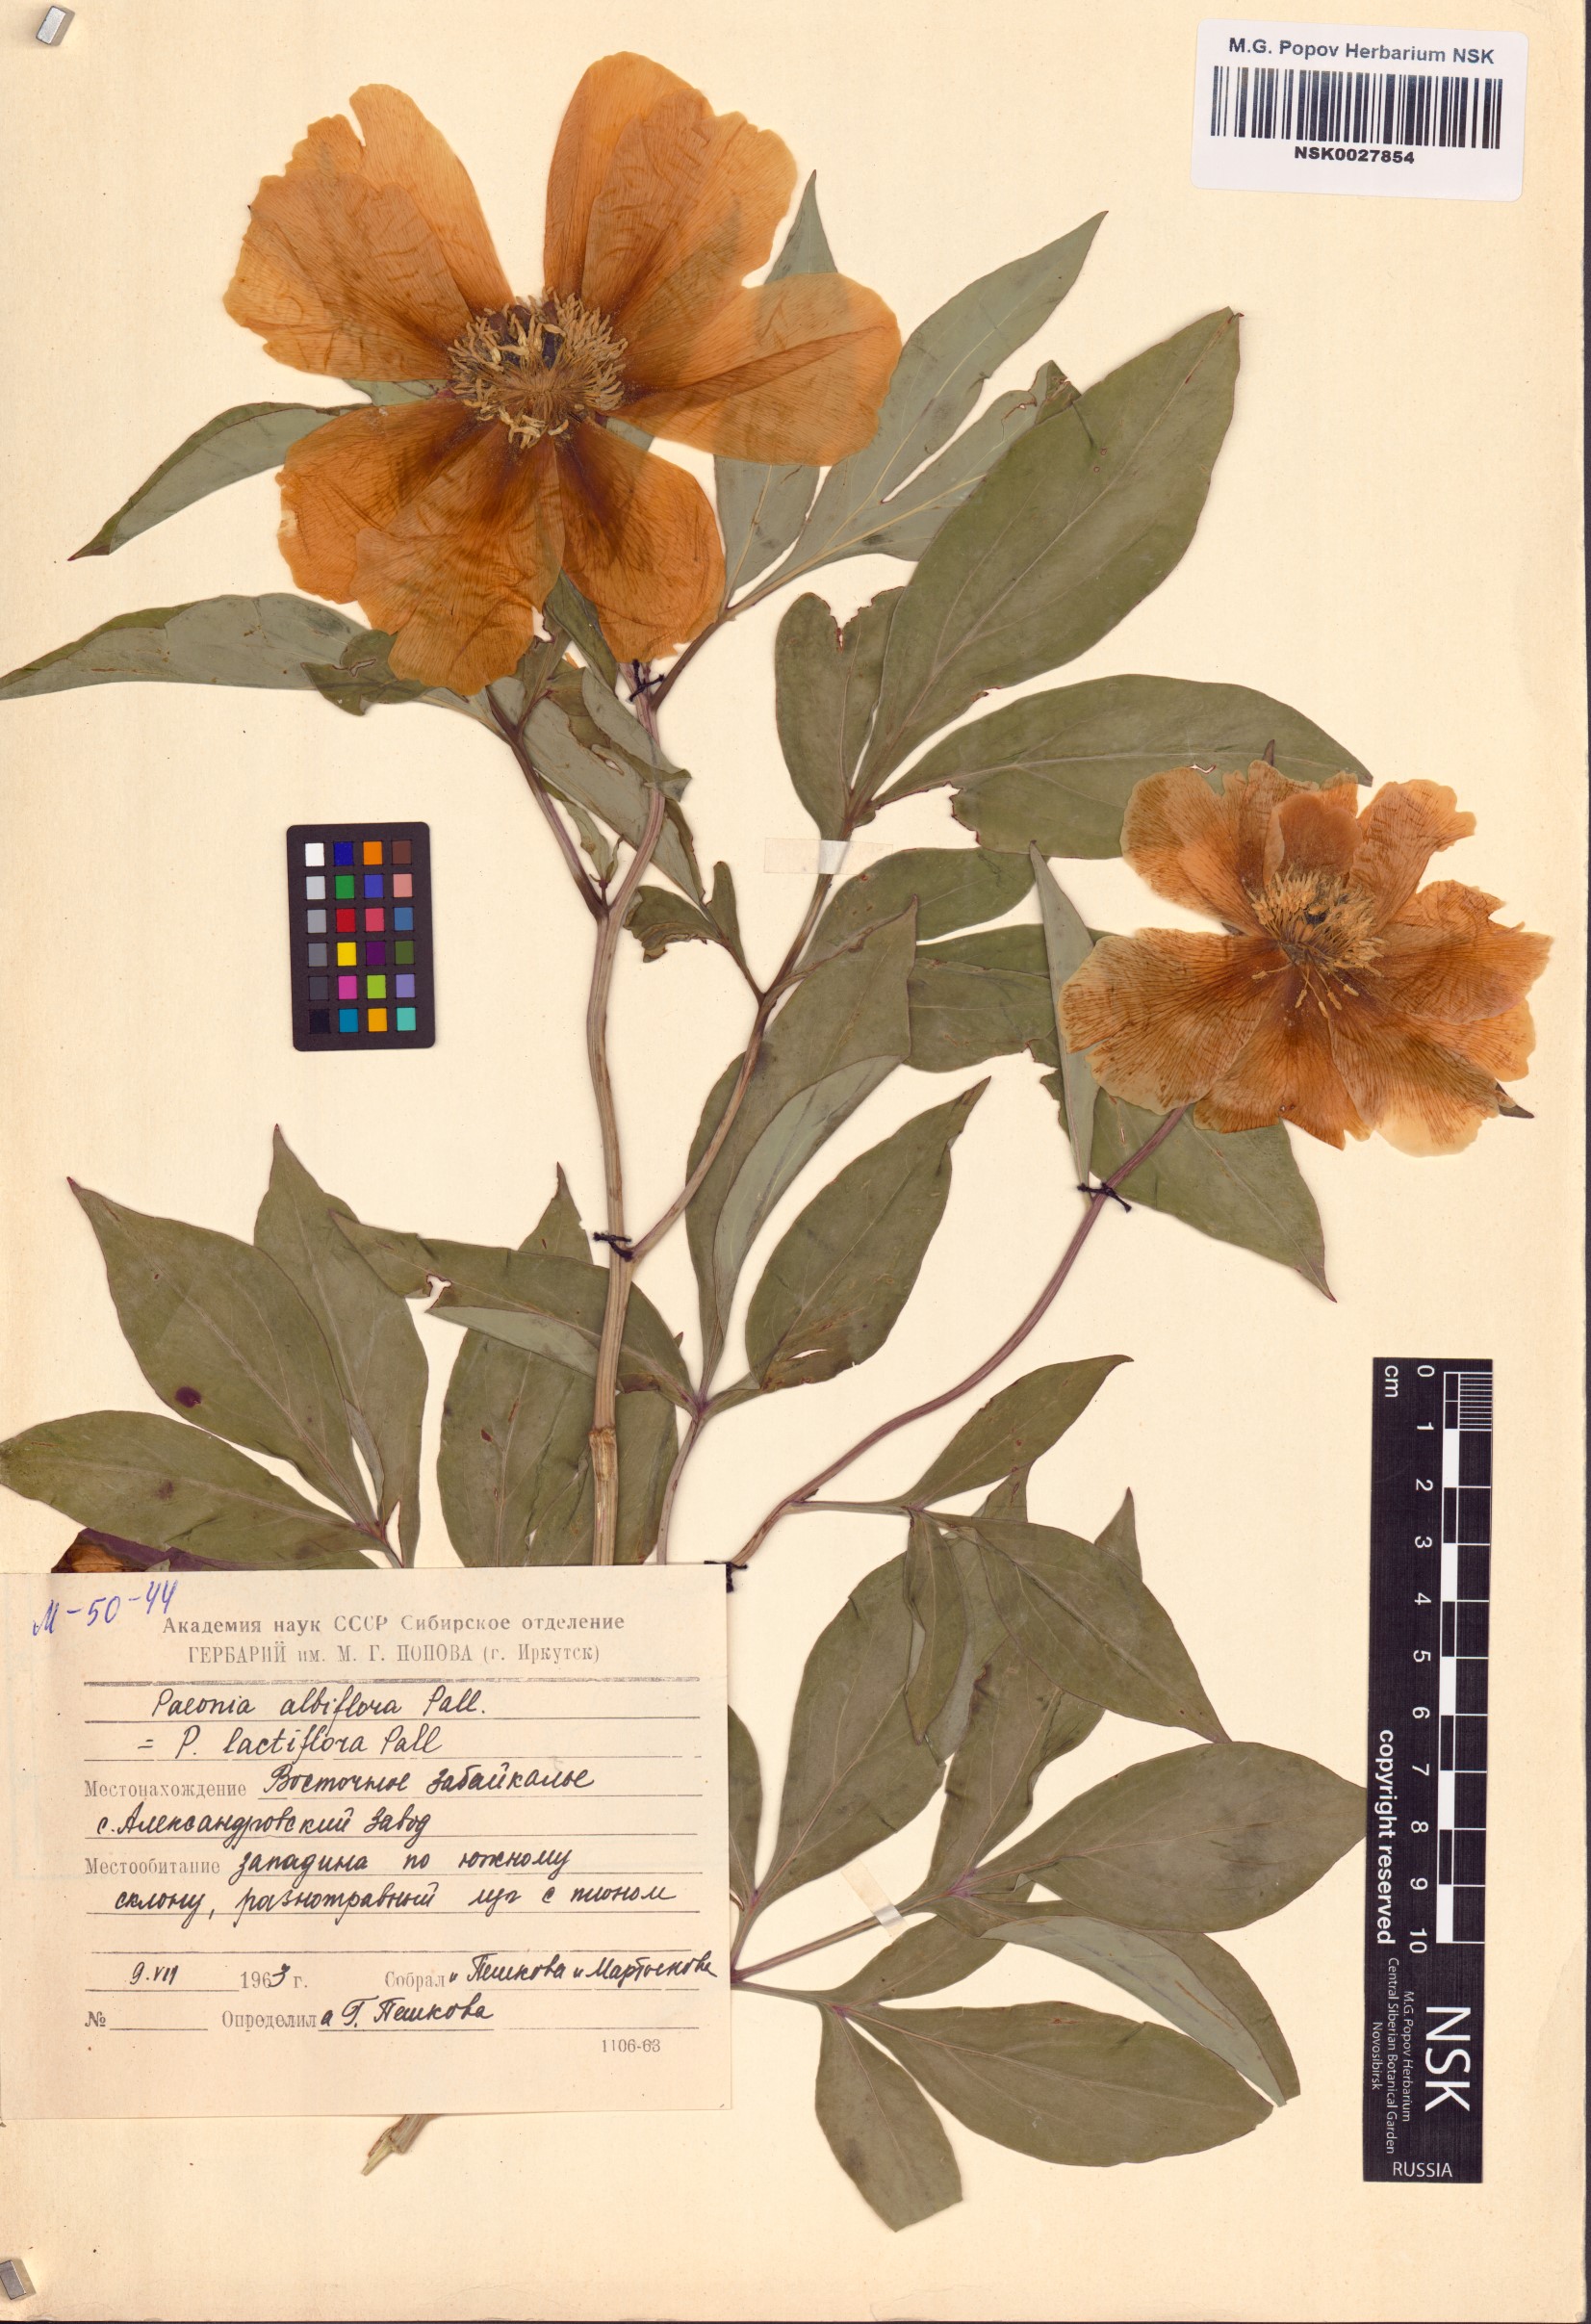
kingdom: Plantae
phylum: Tracheophyta
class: Magnoliopsida
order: Saxifragales
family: Paeoniaceae
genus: Paeonia
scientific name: Paeonia lactiflora
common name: Chinese peony
